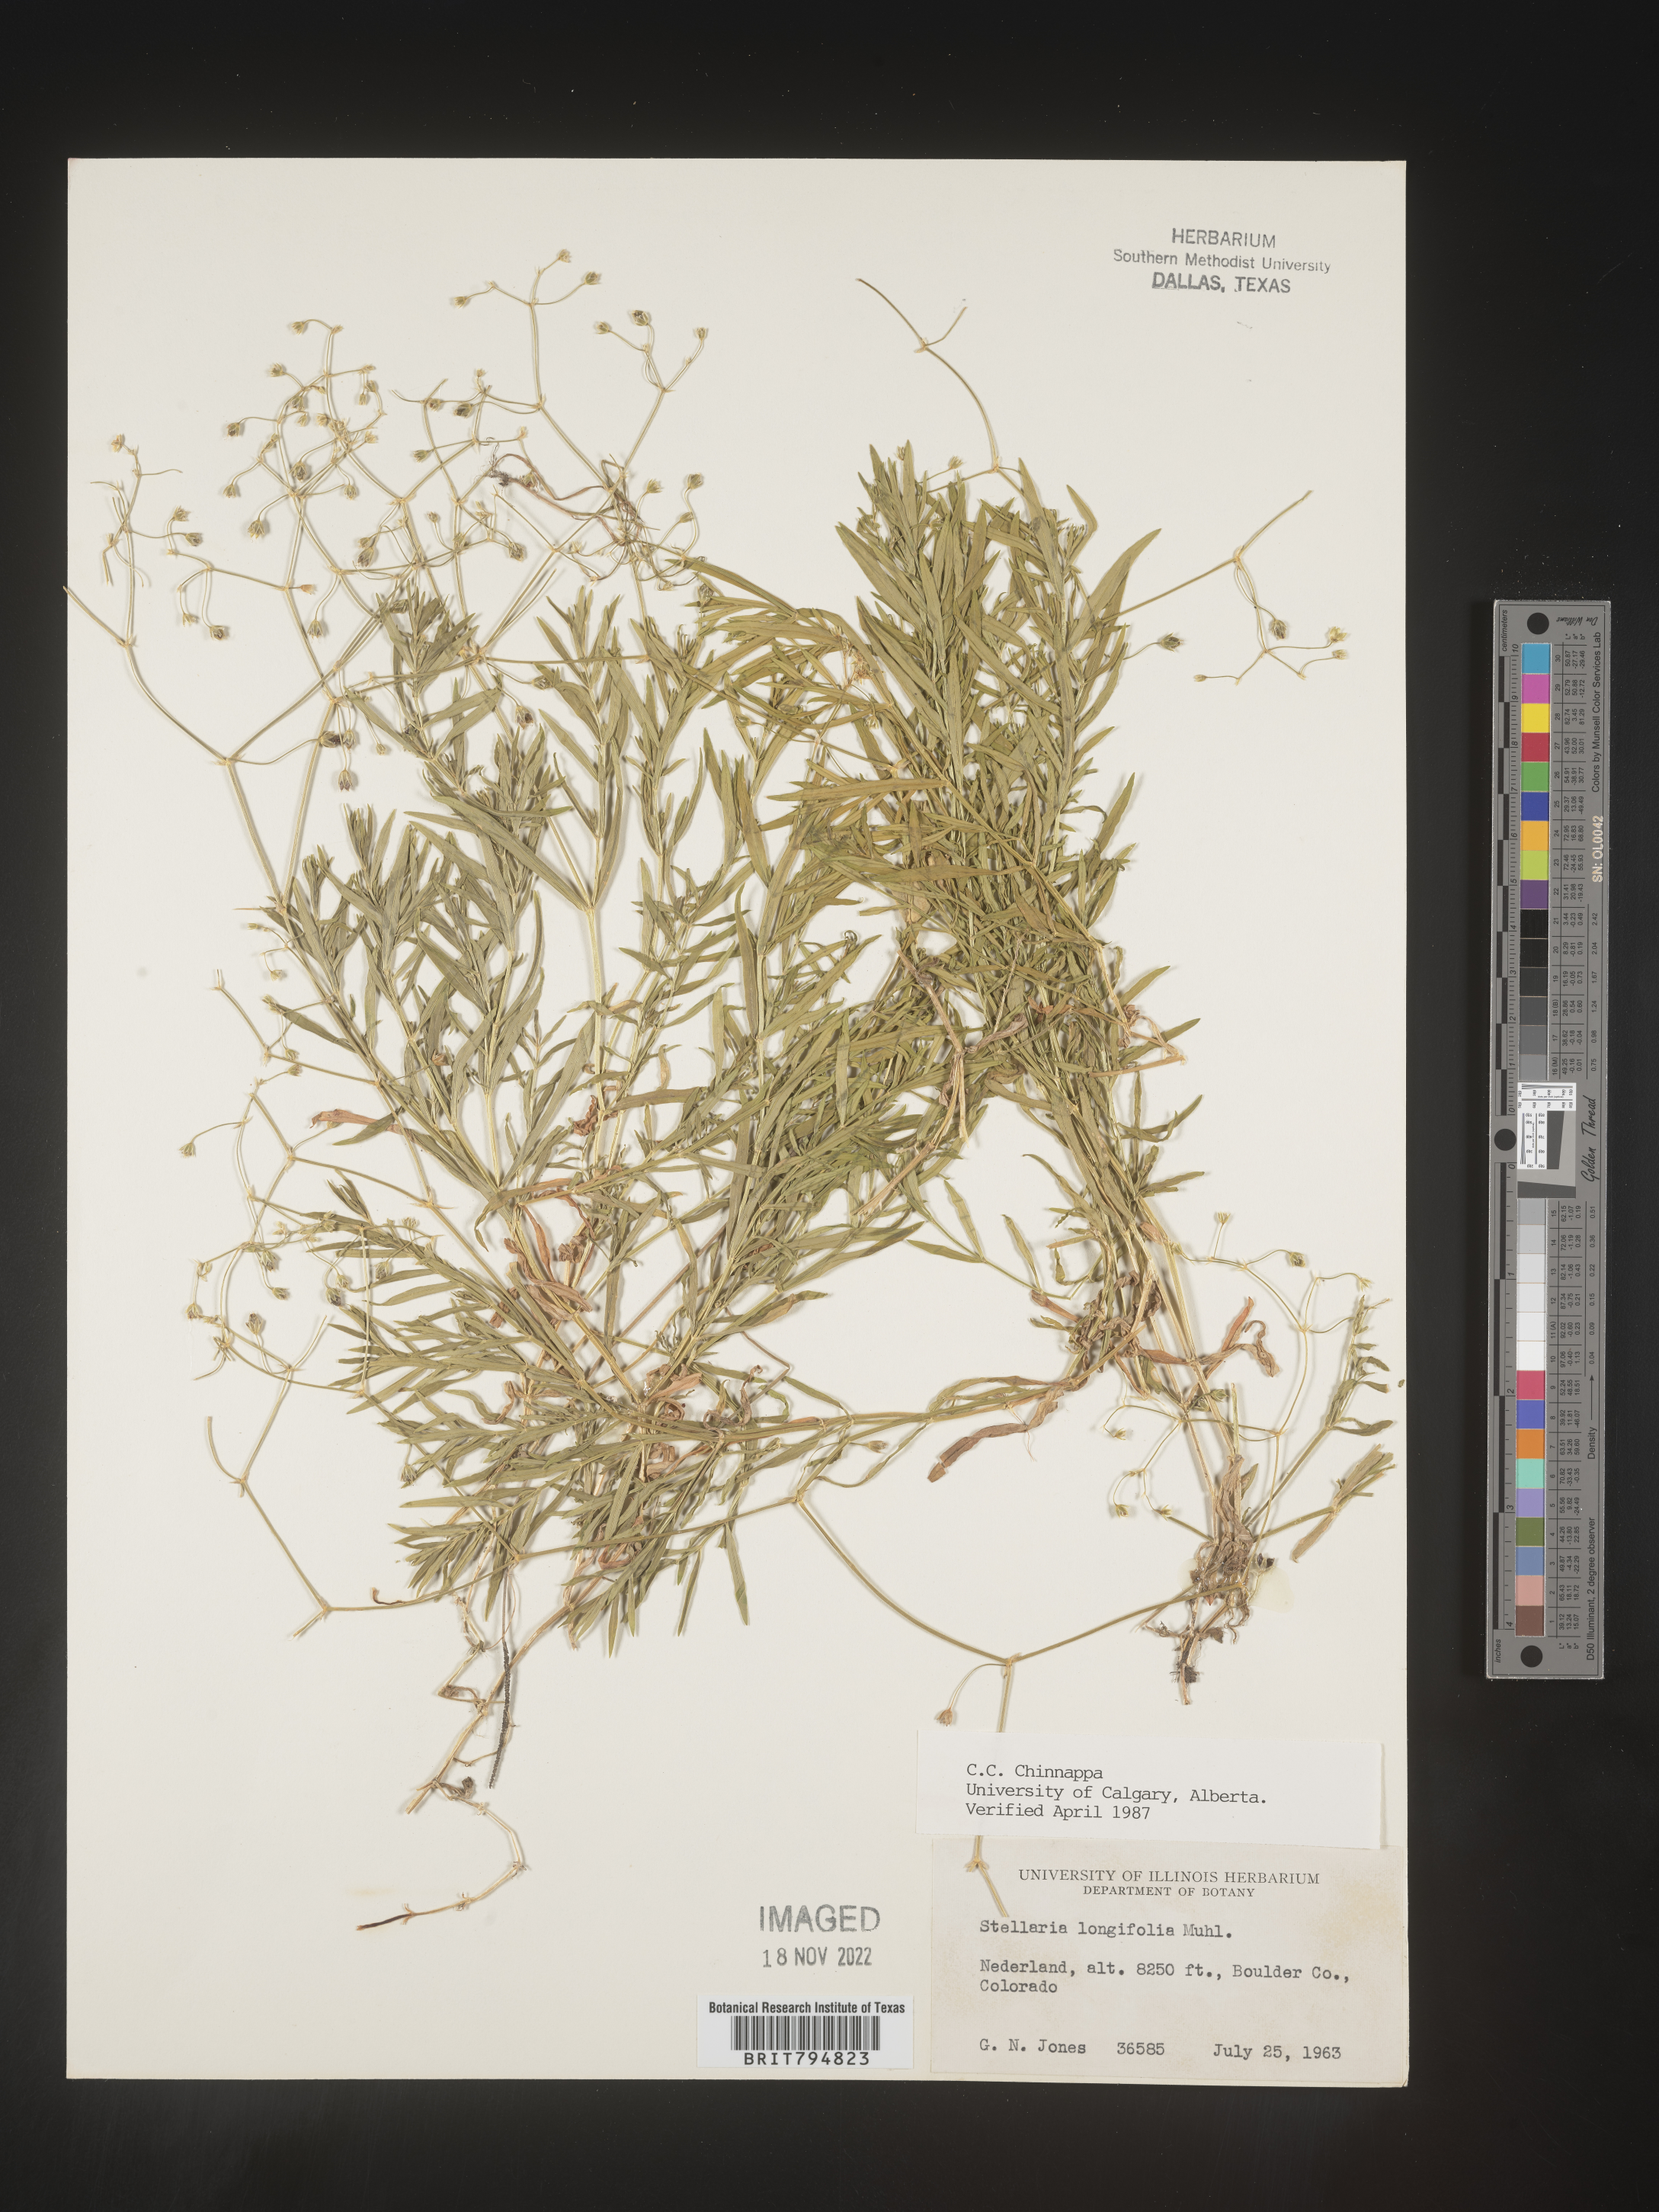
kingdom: Plantae
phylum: Tracheophyta
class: Magnoliopsida
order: Caryophyllales
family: Caryophyllaceae
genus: Stellaria
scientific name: Stellaria longifolia
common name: Long-leaved chickweed
